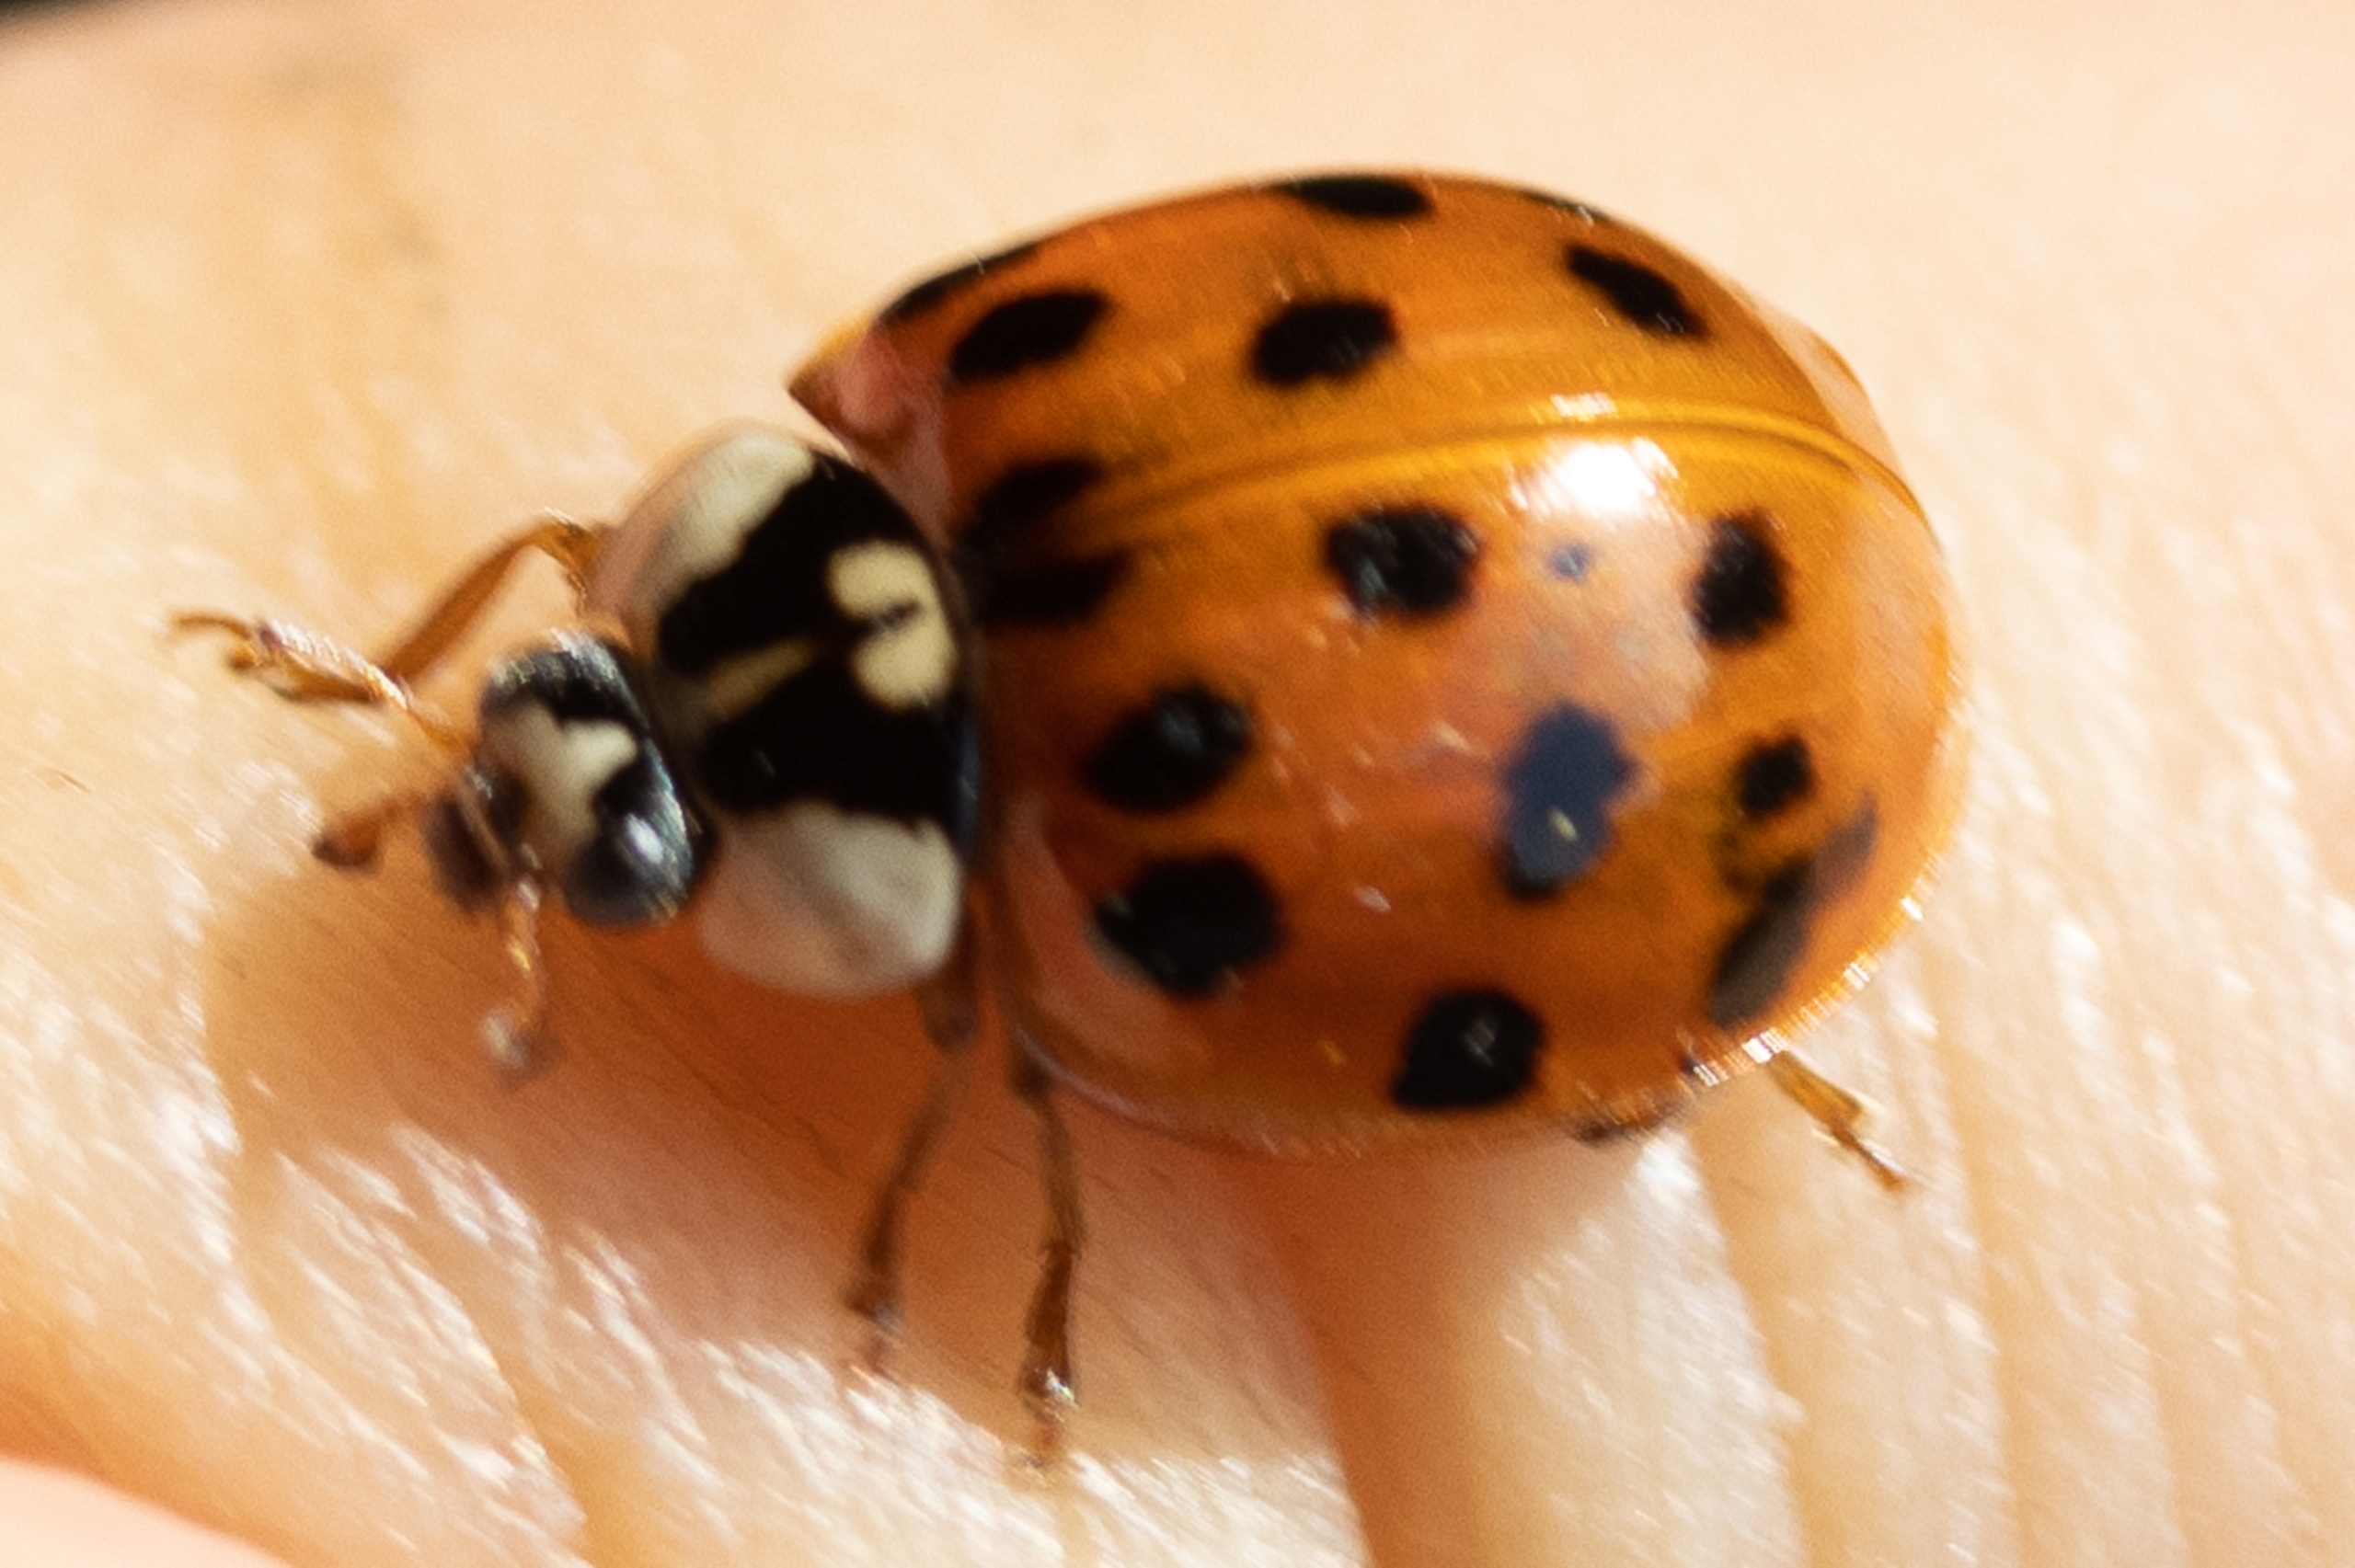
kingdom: Animalia
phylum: Arthropoda
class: Insecta
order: Coleoptera
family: Coccinellidae
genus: Harmonia
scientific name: Harmonia axyridis
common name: Harlekinmariehøne
